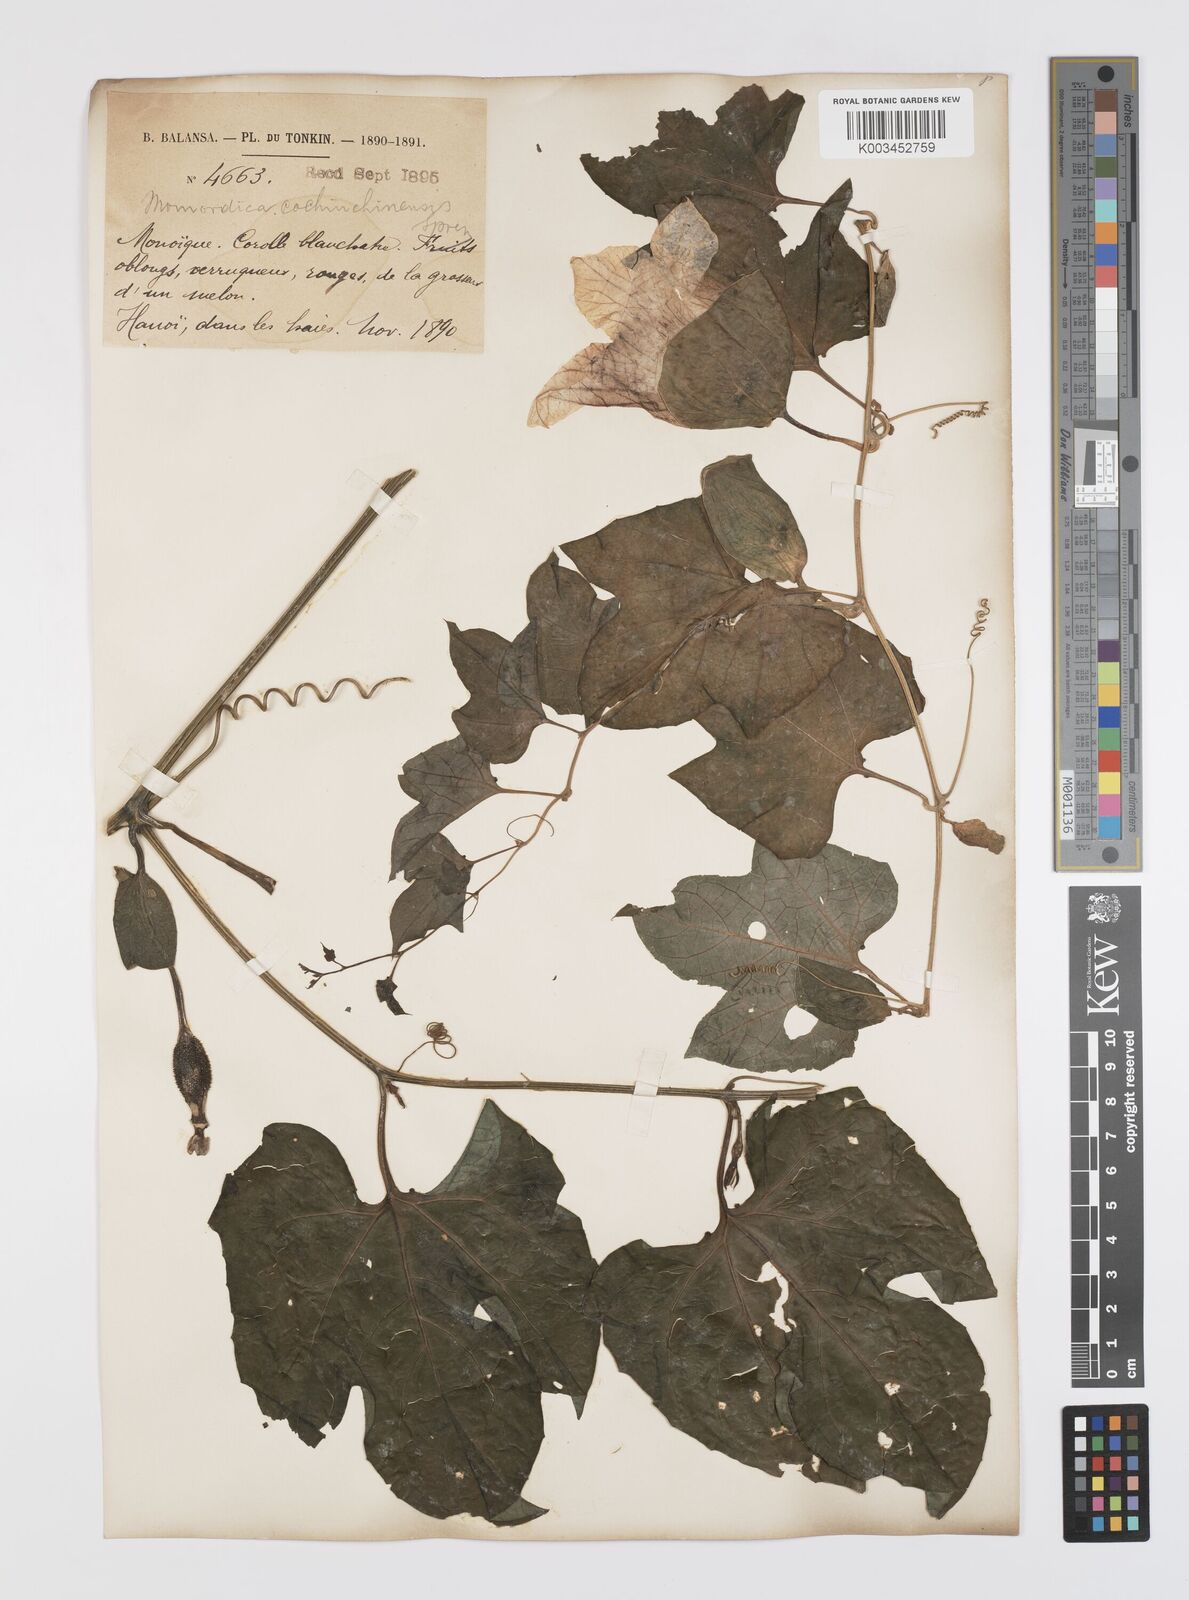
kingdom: Plantae
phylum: Tracheophyta
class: Magnoliopsida
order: Cucurbitales
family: Cucurbitaceae
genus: Momordica
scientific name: Momordica cochinchinensis
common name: Chinese bitter-cucumber
